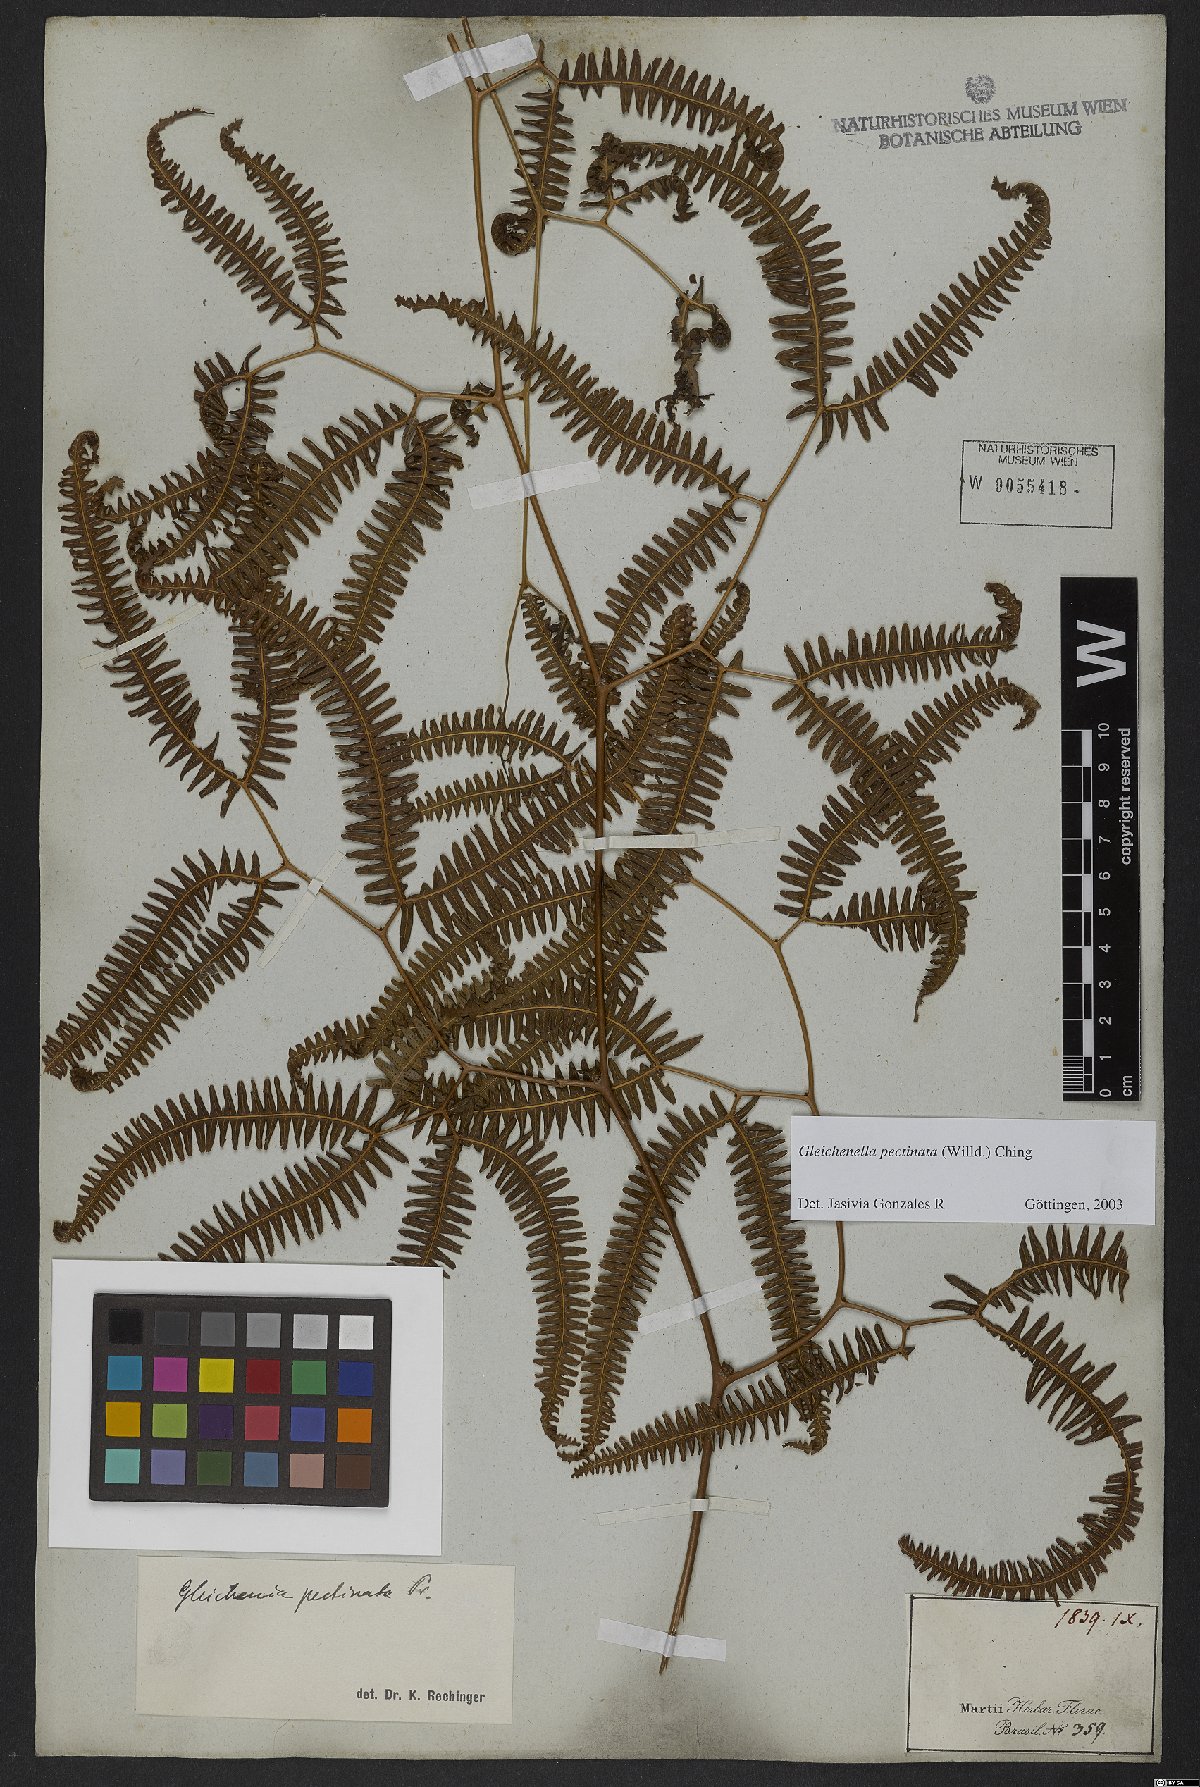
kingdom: Plantae
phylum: Tracheophyta
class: Polypodiopsida
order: Gleicheniales
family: Gleicheniaceae
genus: Gleichenella
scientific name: Gleichenella pectinata
